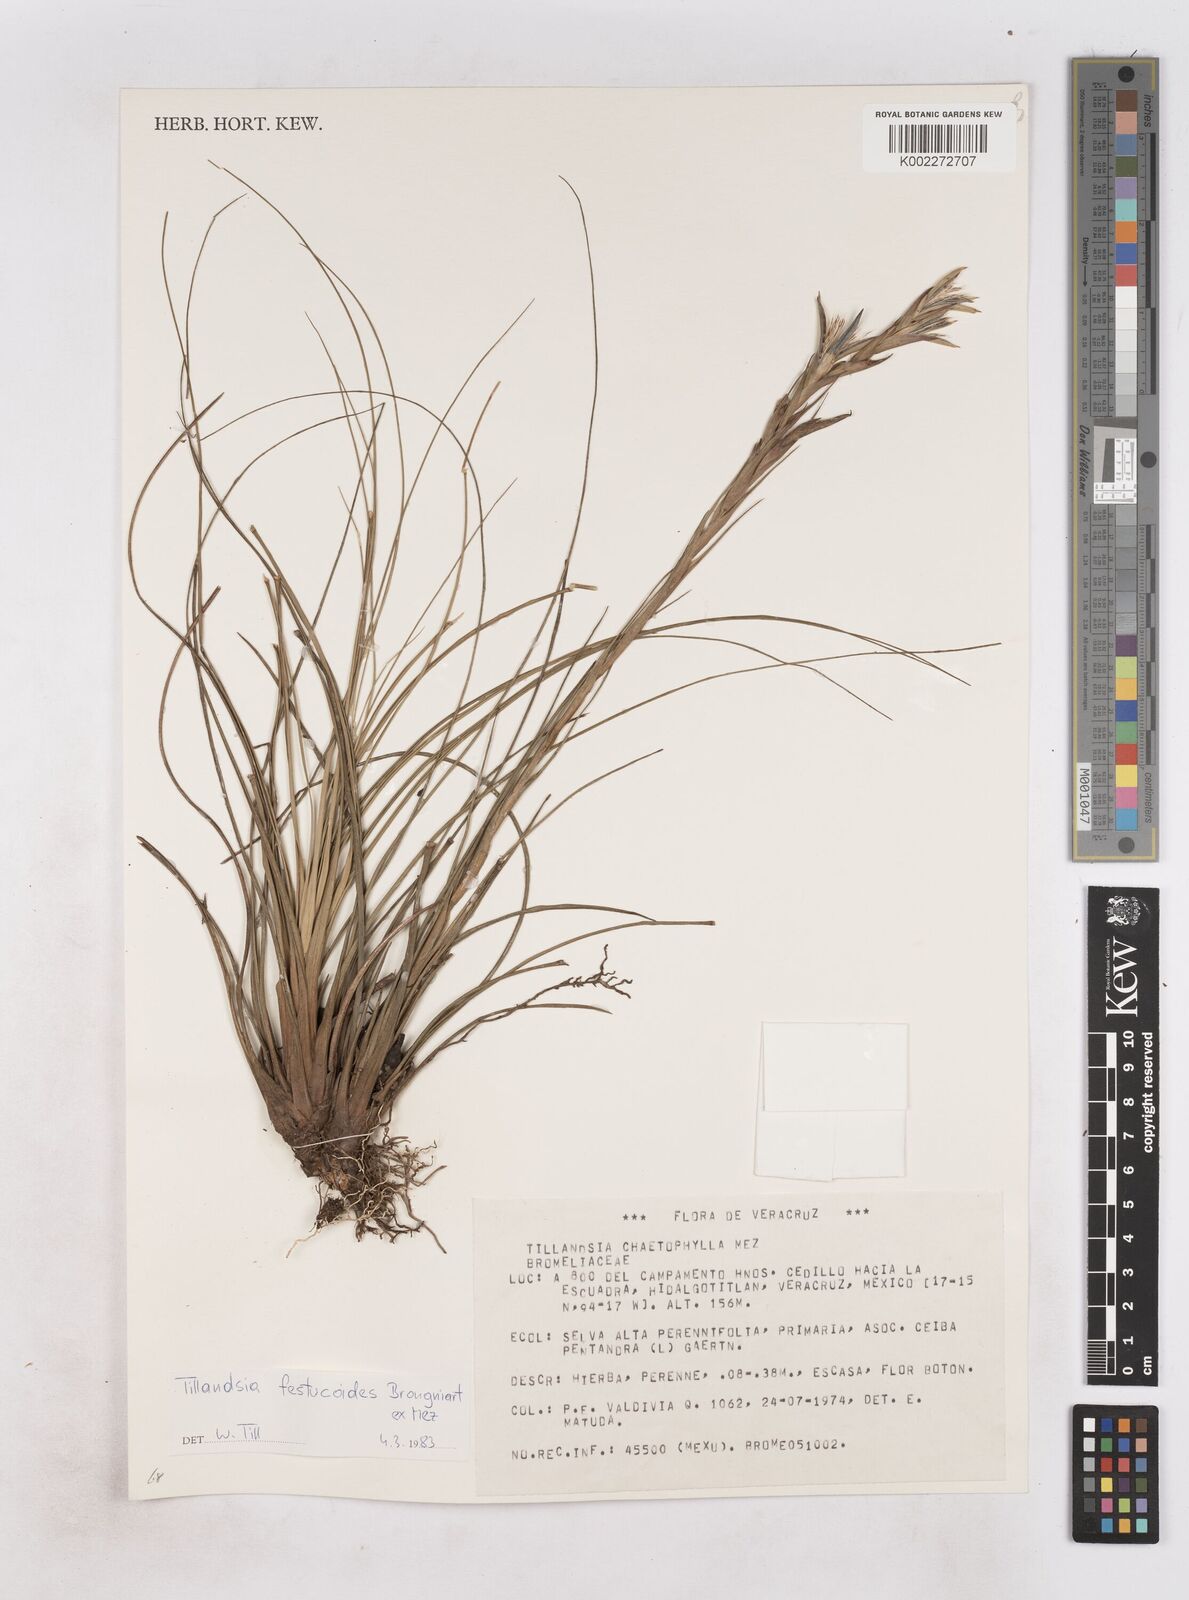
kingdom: Plantae
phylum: Tracheophyta
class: Liliopsida
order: Poales
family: Bromeliaceae
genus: Tillandsia
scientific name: Tillandsia festucoides
